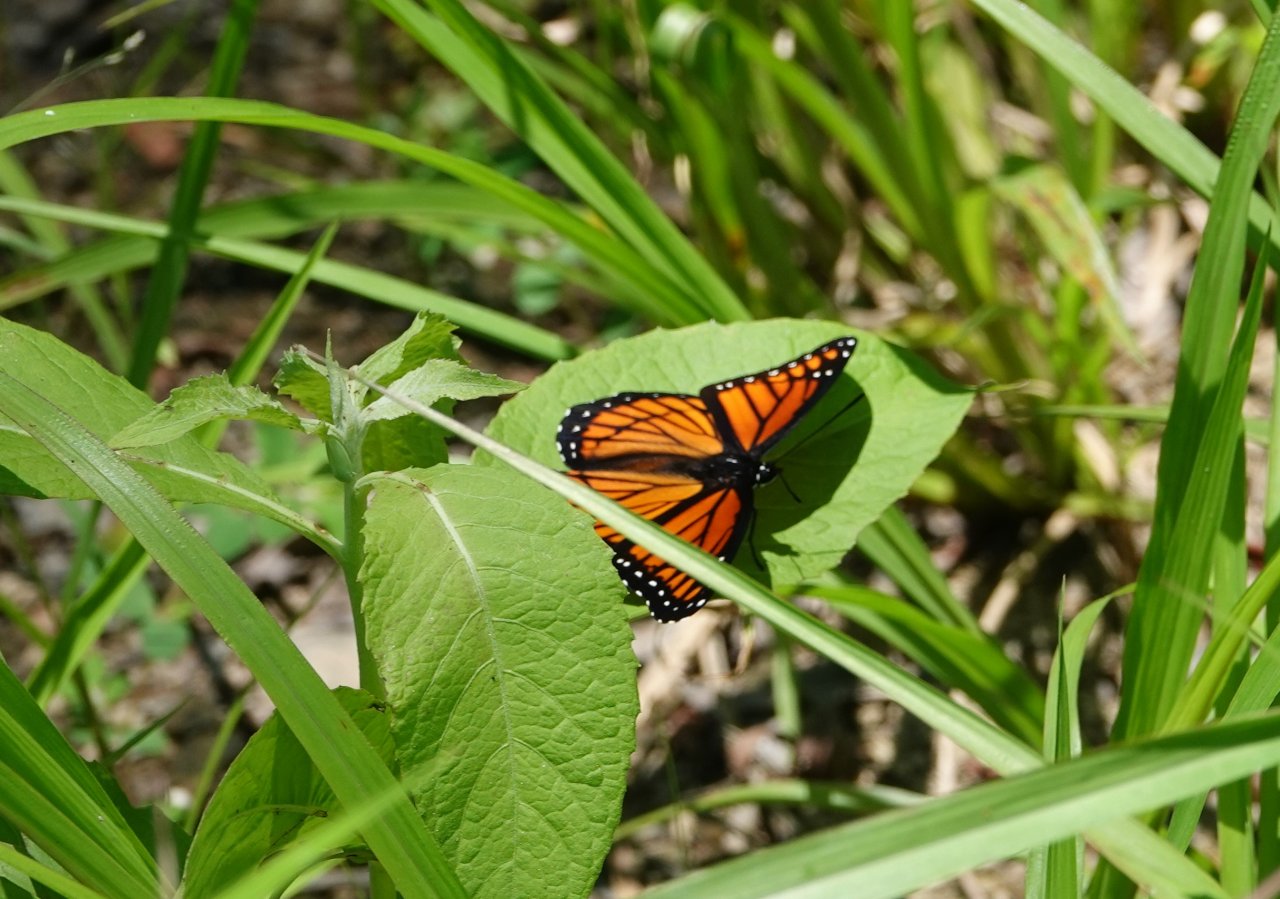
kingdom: Animalia
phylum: Arthropoda
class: Insecta
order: Lepidoptera
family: Nymphalidae
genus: Limenitis
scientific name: Limenitis archippus
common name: Viceroy
